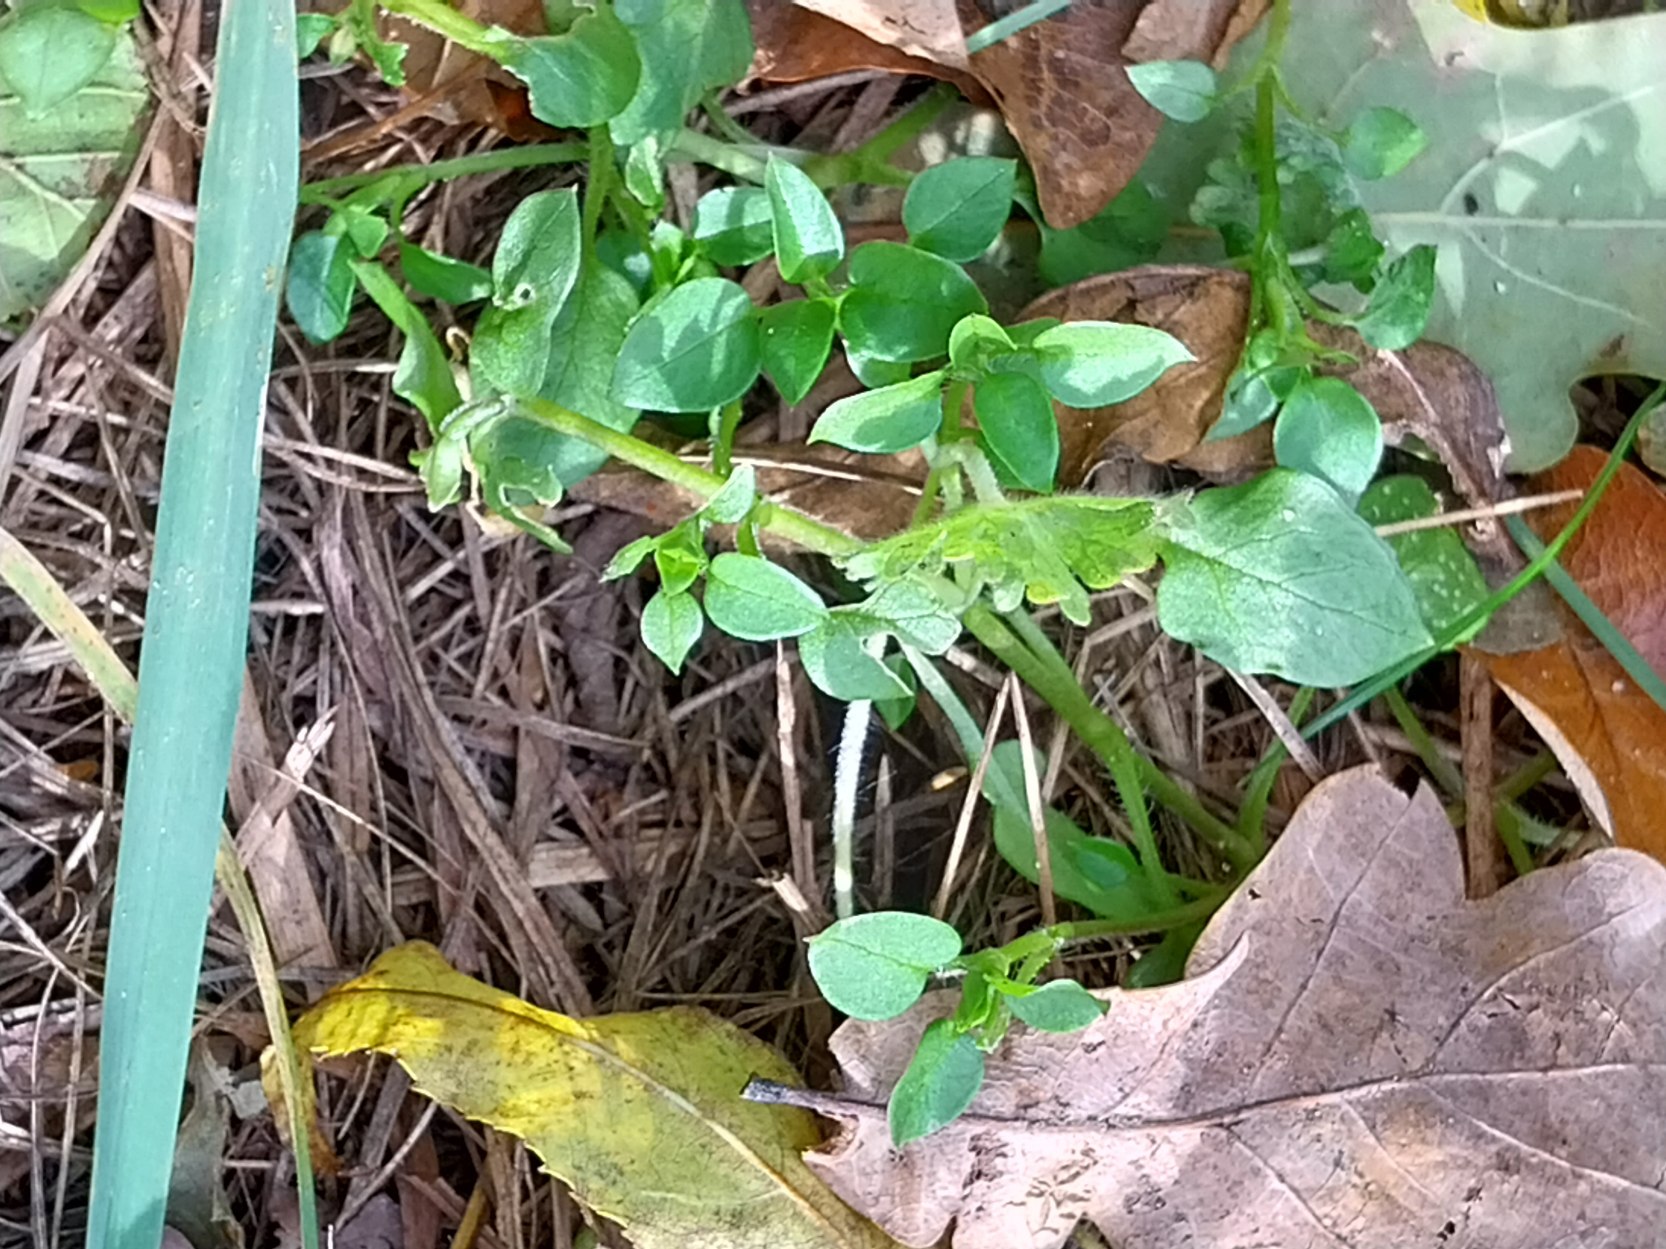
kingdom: Plantae
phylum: Tracheophyta
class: Magnoliopsida
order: Caryophyllales
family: Caryophyllaceae
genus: Stellaria
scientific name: Stellaria media
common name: Almindelig fuglegræs
